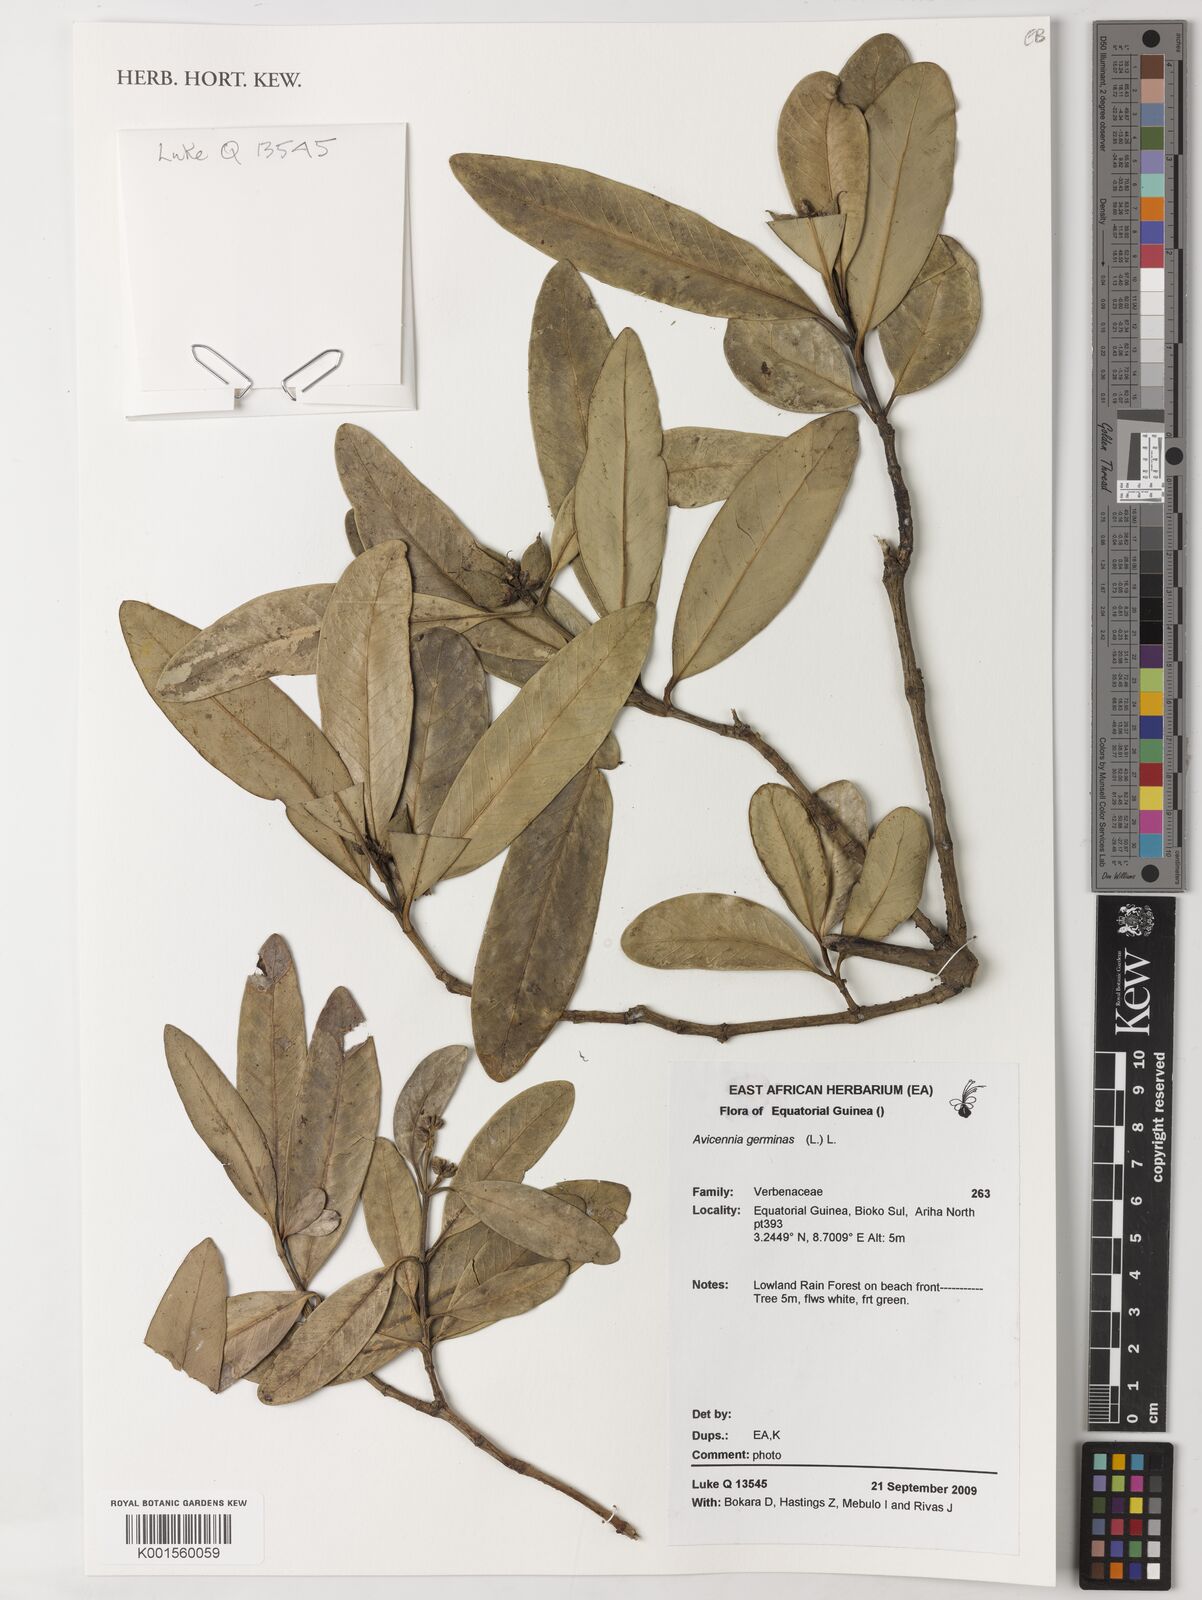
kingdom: Plantae
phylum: Tracheophyta
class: Magnoliopsida
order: Lamiales
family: Acanthaceae
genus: Avicennia
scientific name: Avicennia germinans
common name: Black mangrove
